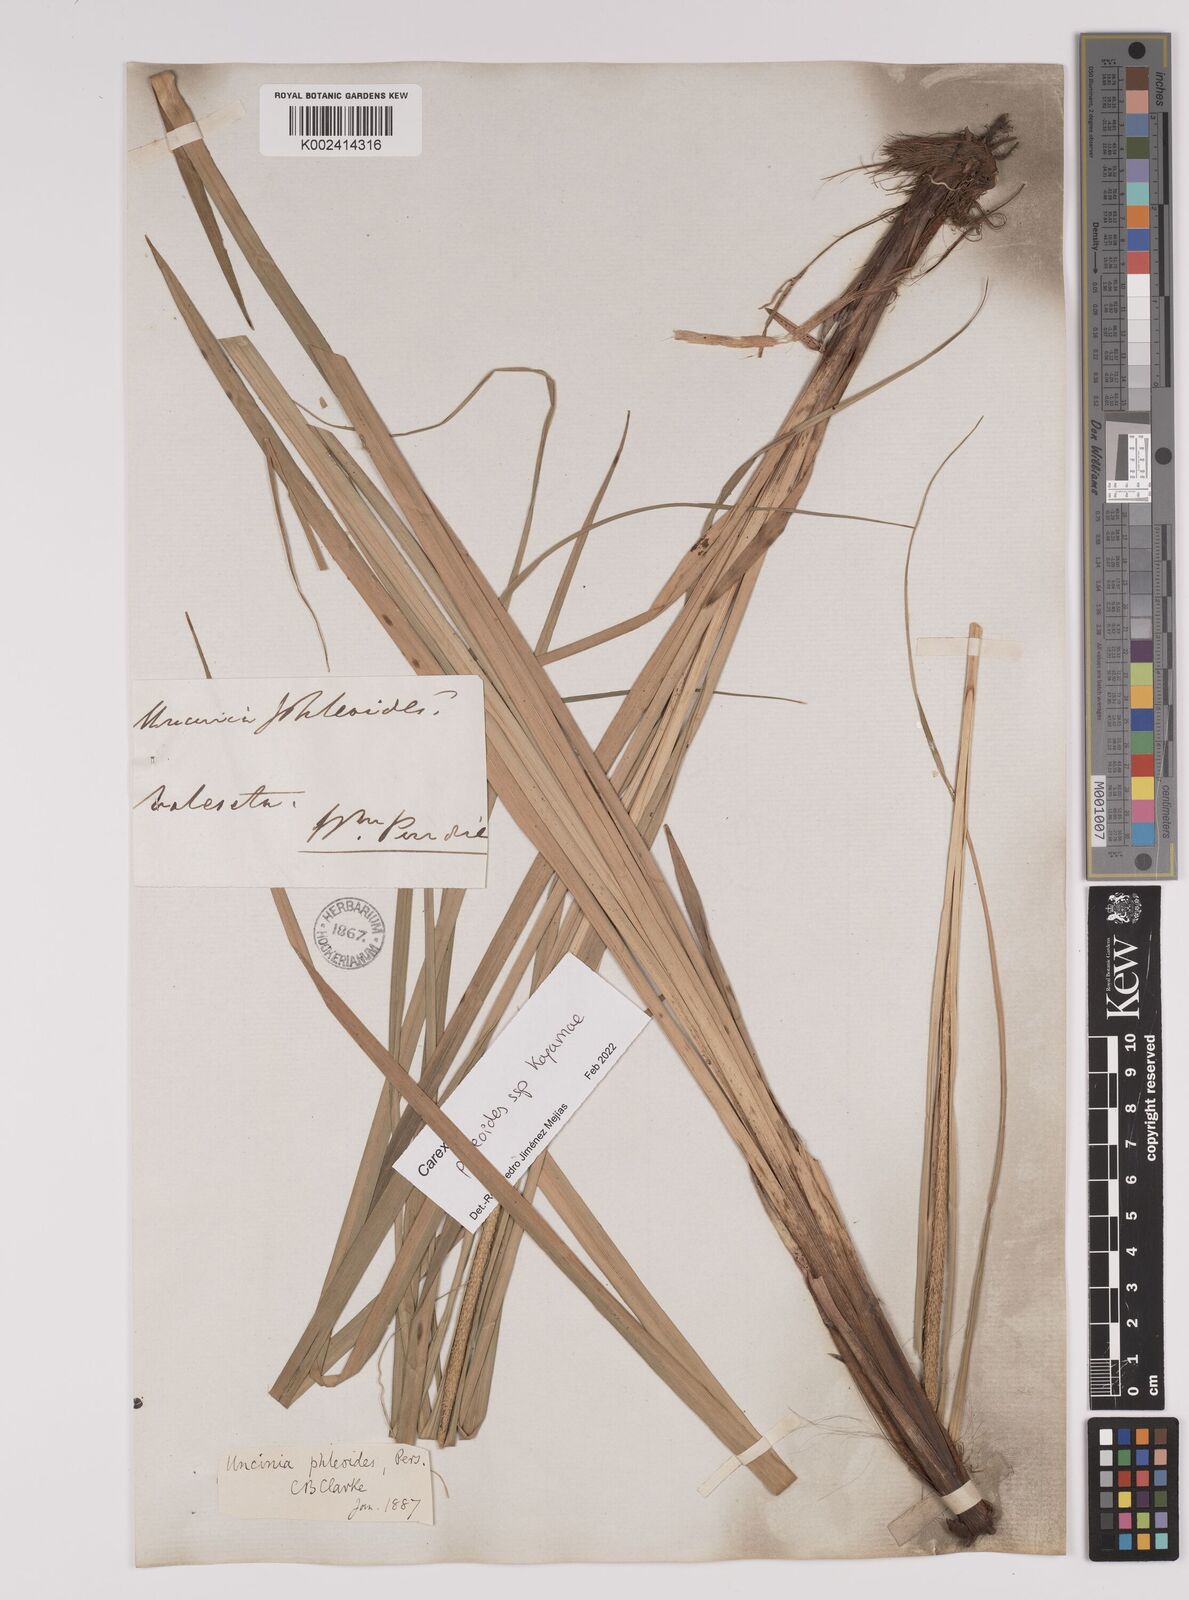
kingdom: Plantae
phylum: Tracheophyta
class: Liliopsida
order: Poales
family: Cyperaceae
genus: Carex
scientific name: Carex phleoides
